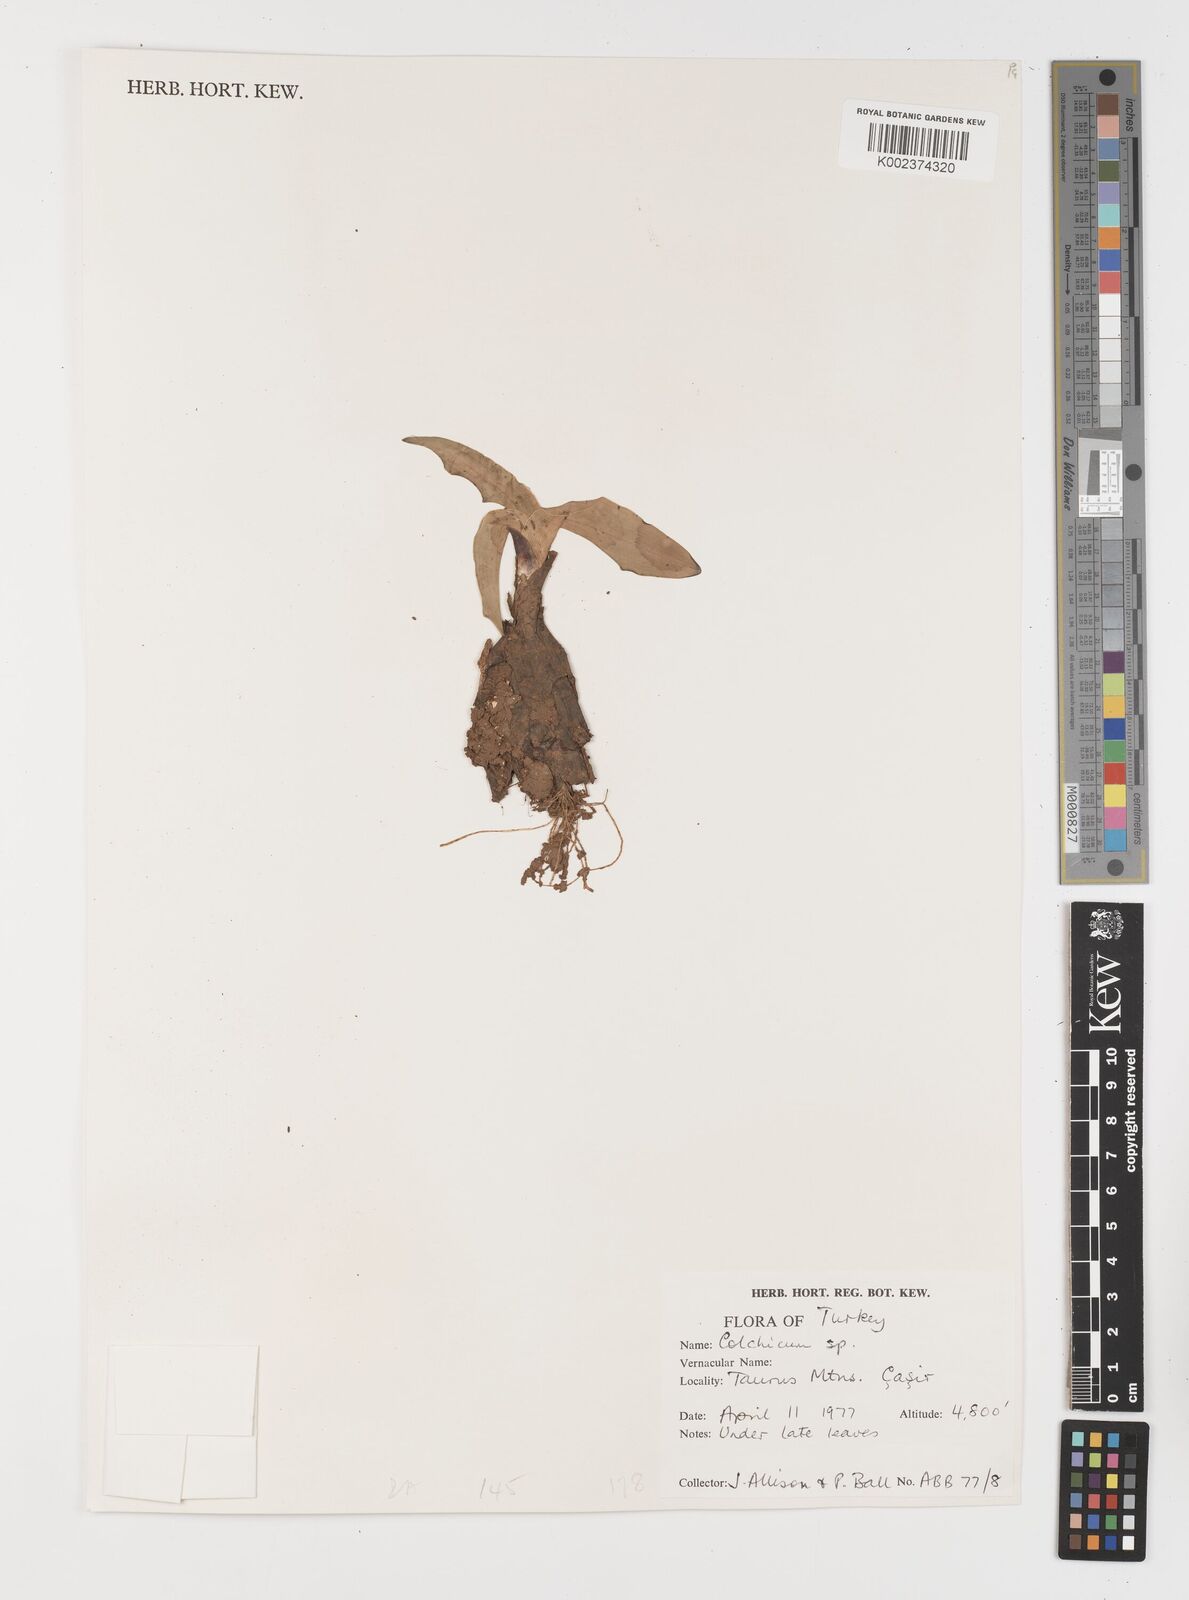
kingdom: Plantae
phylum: Tracheophyta
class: Liliopsida
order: Liliales
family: Colchicaceae
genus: Colchicum
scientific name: Colchicum
